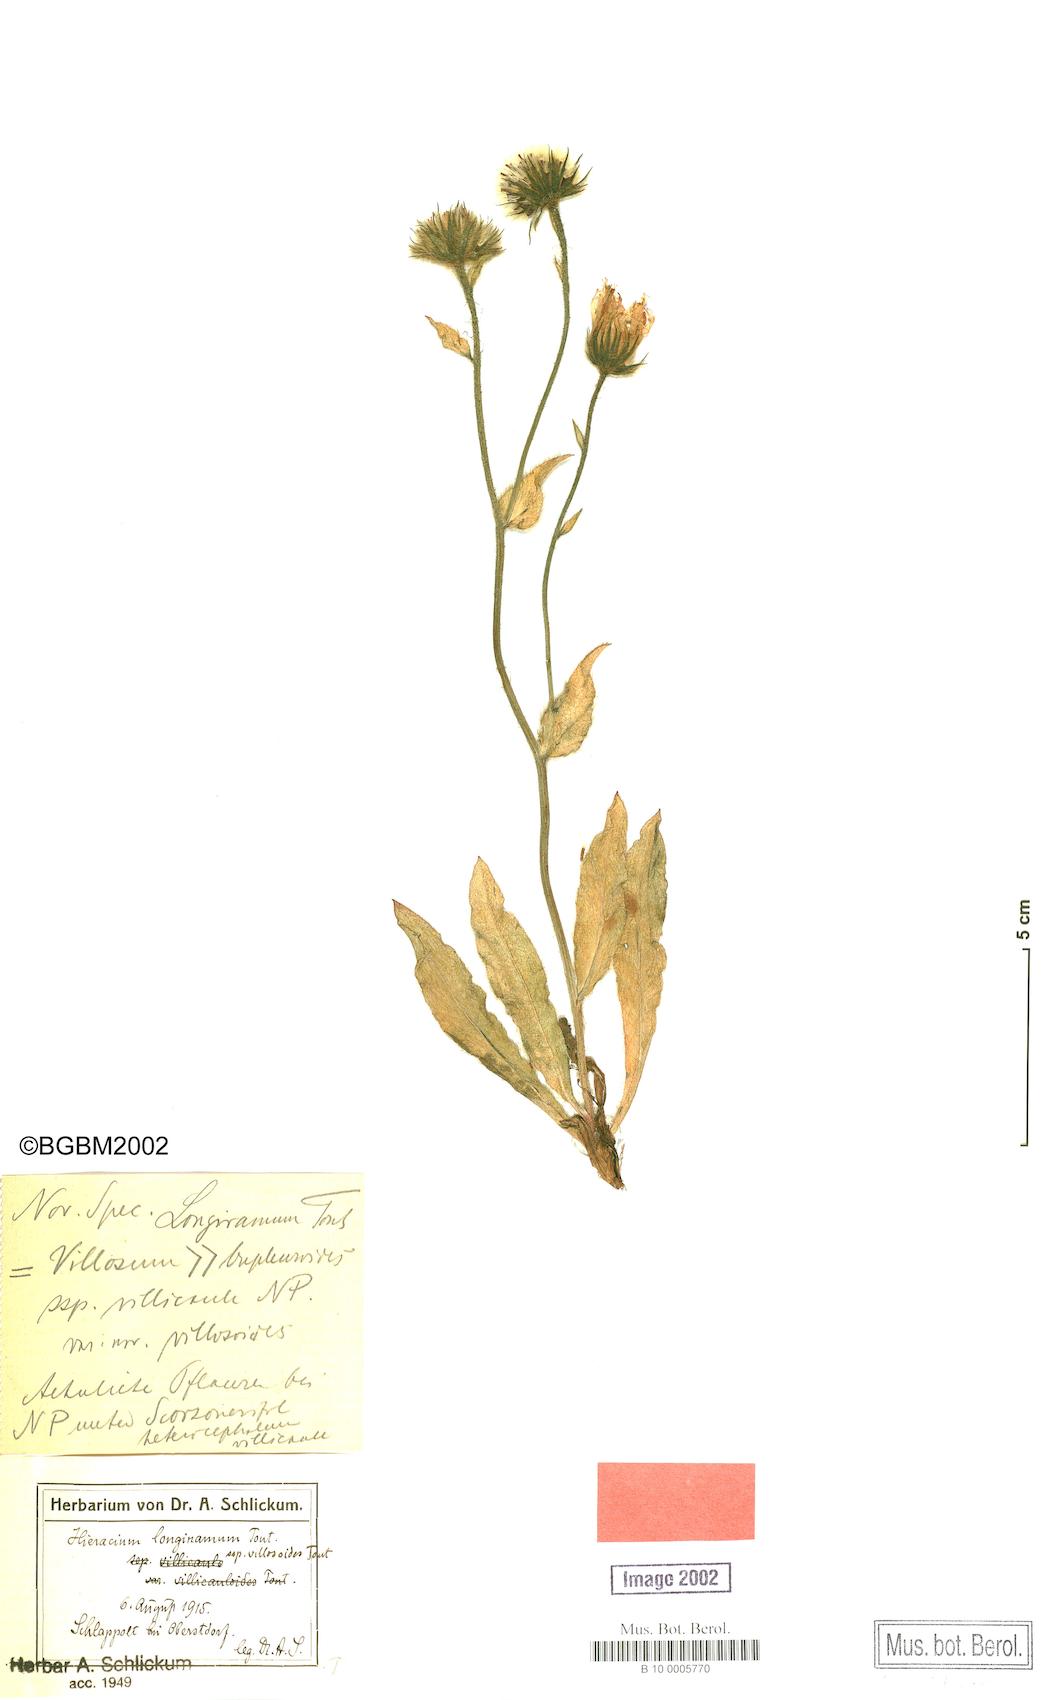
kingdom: Plantae
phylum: Tracheophyta
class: Magnoliopsida
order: Asterales
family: Asteraceae
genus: Hieracium
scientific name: Hieracium scorzonerifolium
